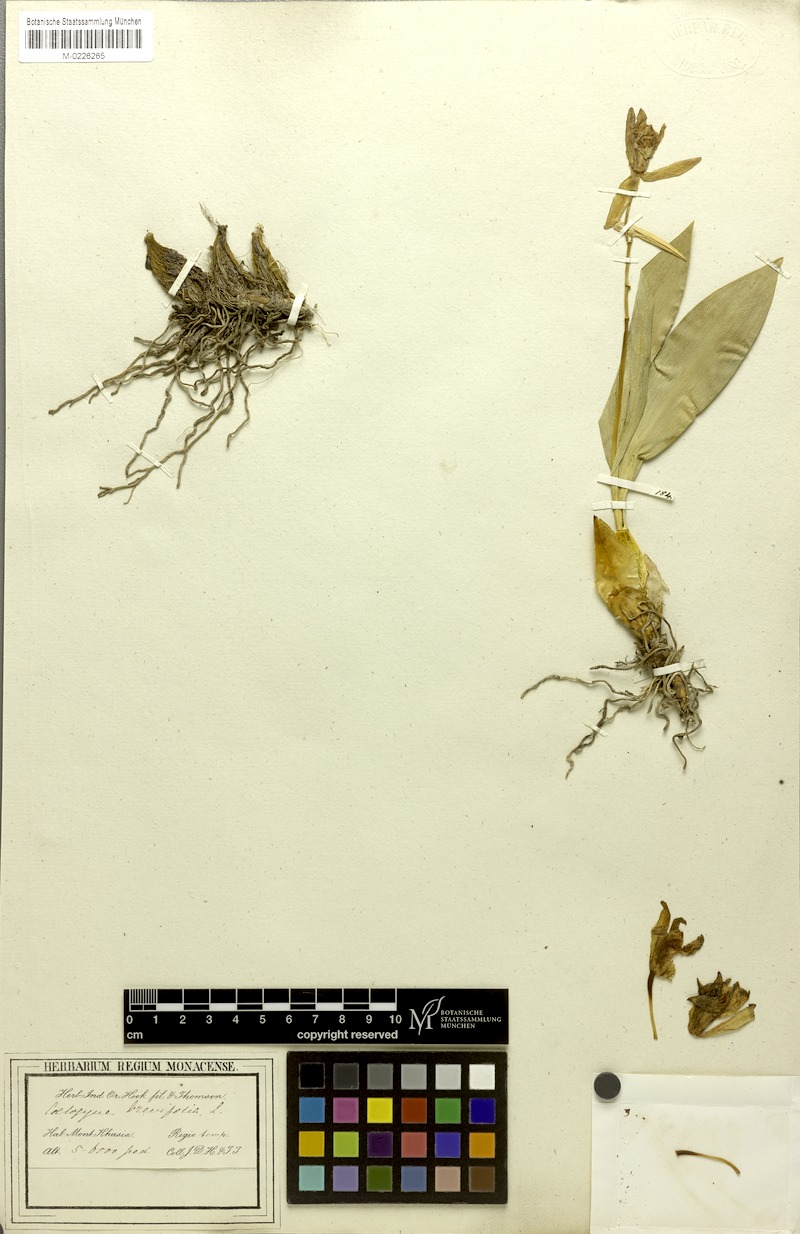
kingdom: Plantae
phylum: Tracheophyta
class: Liliopsida
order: Asparagales
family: Orchidaceae
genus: Coelogyne
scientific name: Coelogyne punctulata
